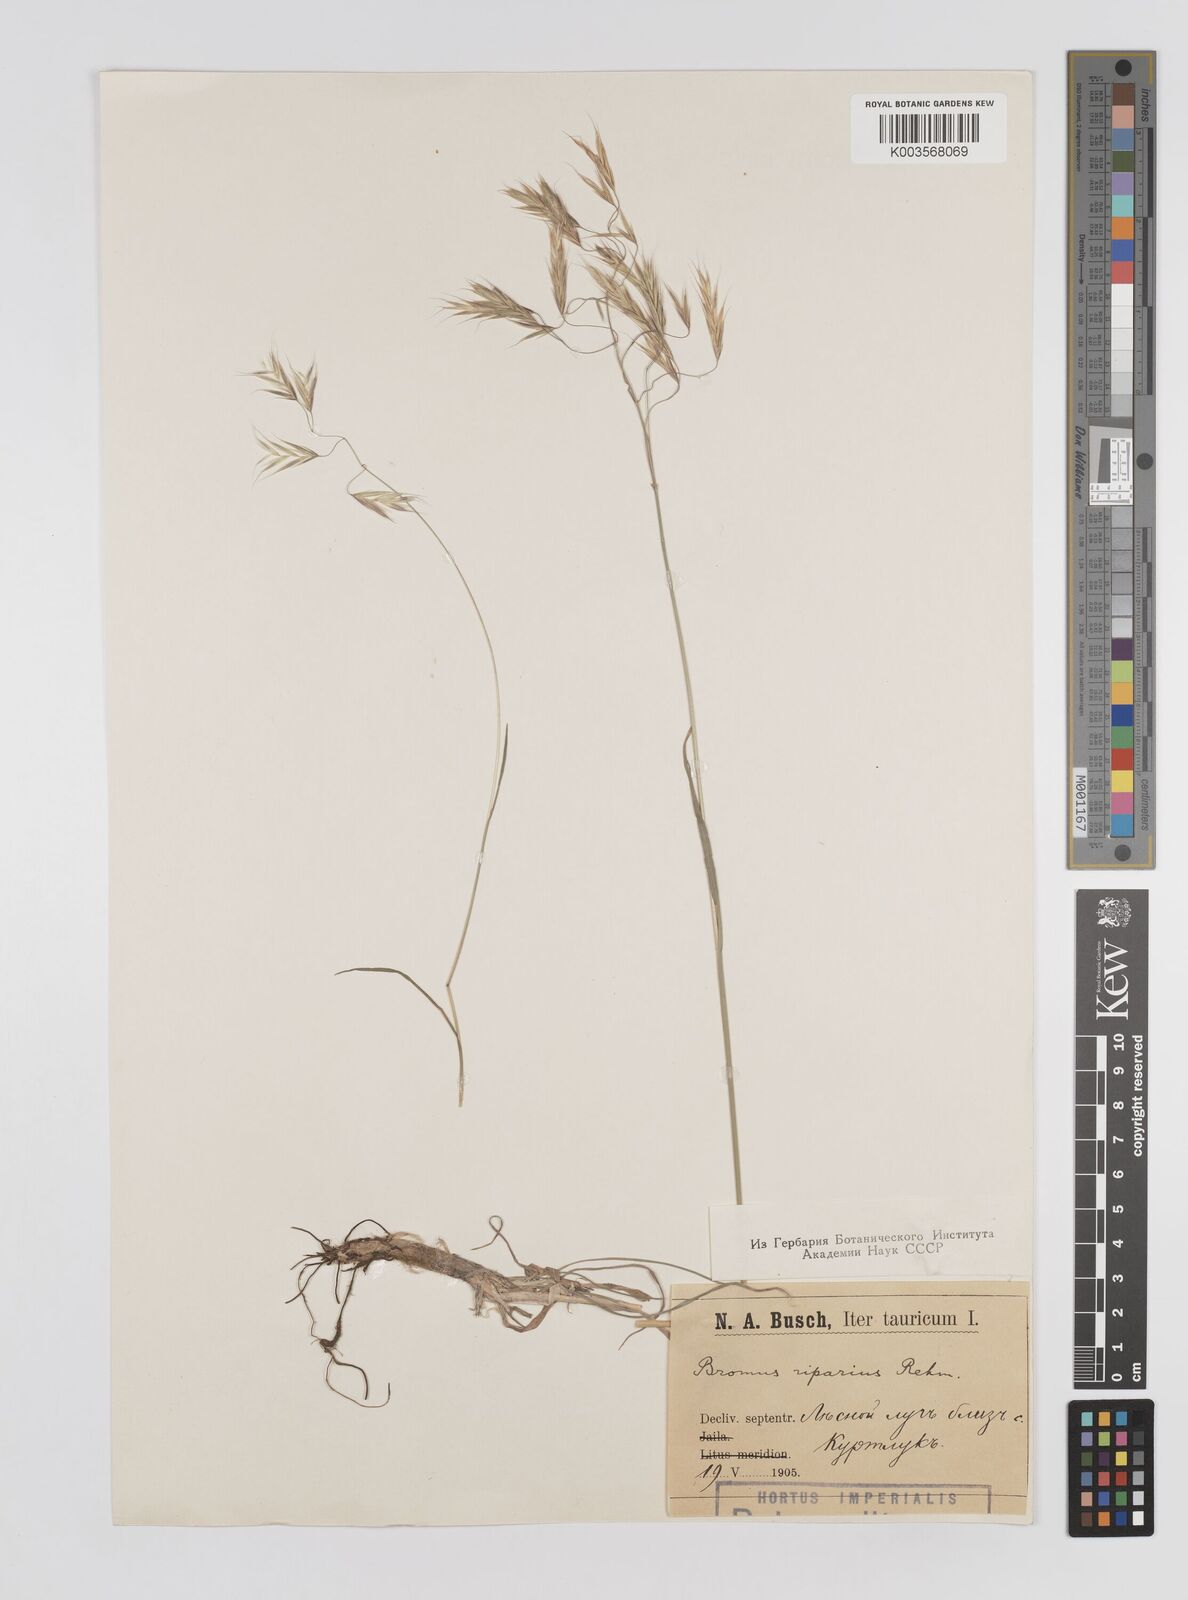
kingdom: Plantae
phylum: Tracheophyta
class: Liliopsida
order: Poales
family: Poaceae
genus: Bromus
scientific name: Bromus riparius
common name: Meadow brome
